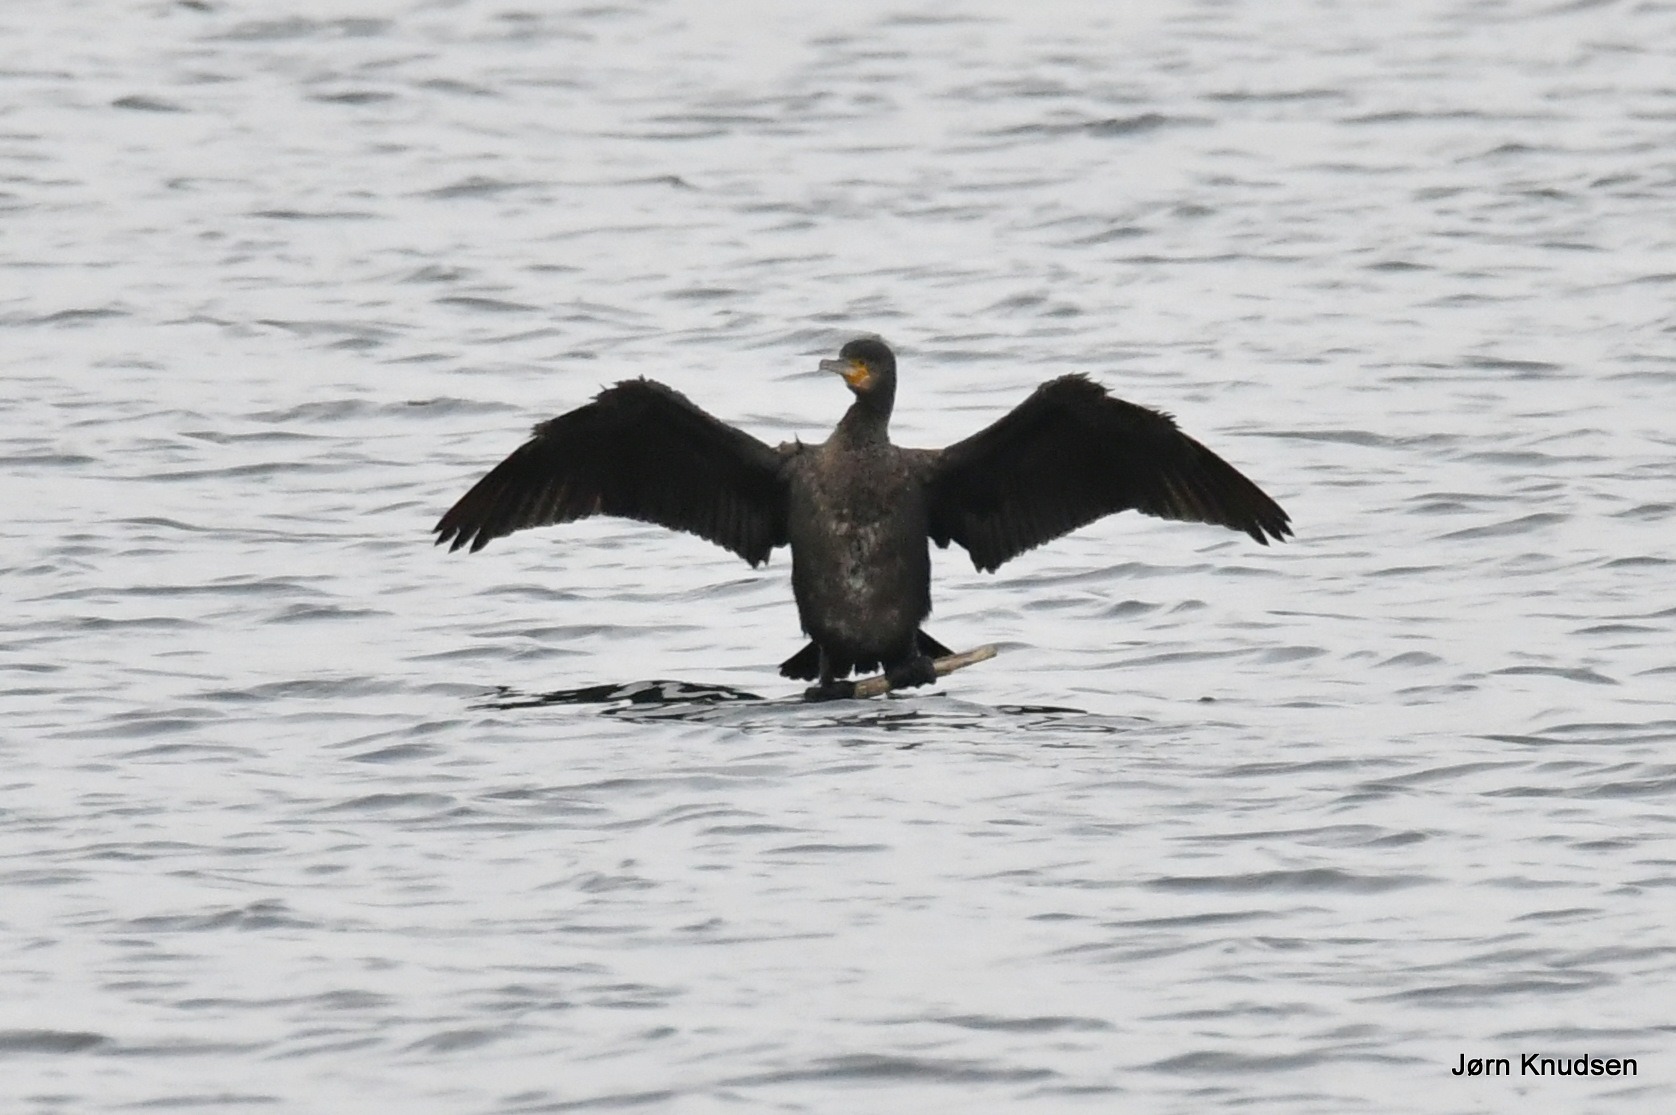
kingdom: Animalia
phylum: Chordata
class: Aves
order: Suliformes
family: Phalacrocoracidae
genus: Phalacrocorax
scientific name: Phalacrocorax carbo
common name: Skarv
